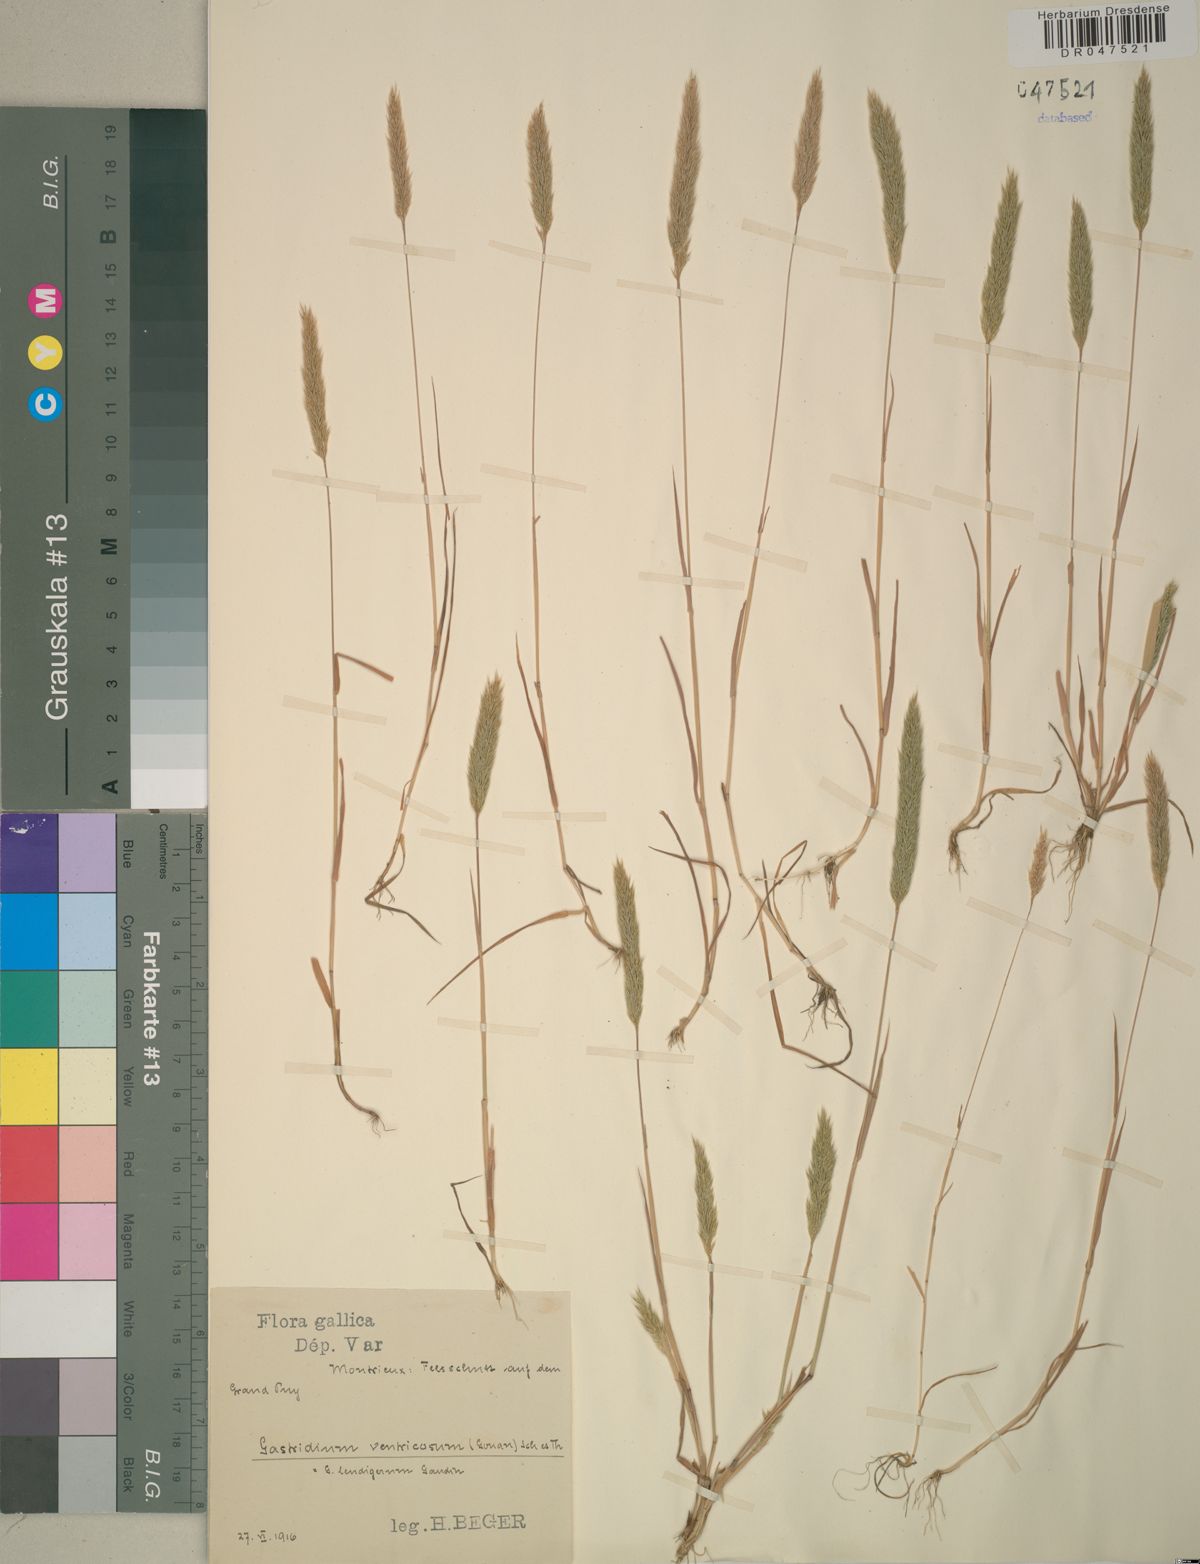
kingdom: Plantae
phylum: Tracheophyta
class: Liliopsida
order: Poales
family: Poaceae
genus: Gastridium
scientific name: Gastridium ventricosum
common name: Nit-grass
